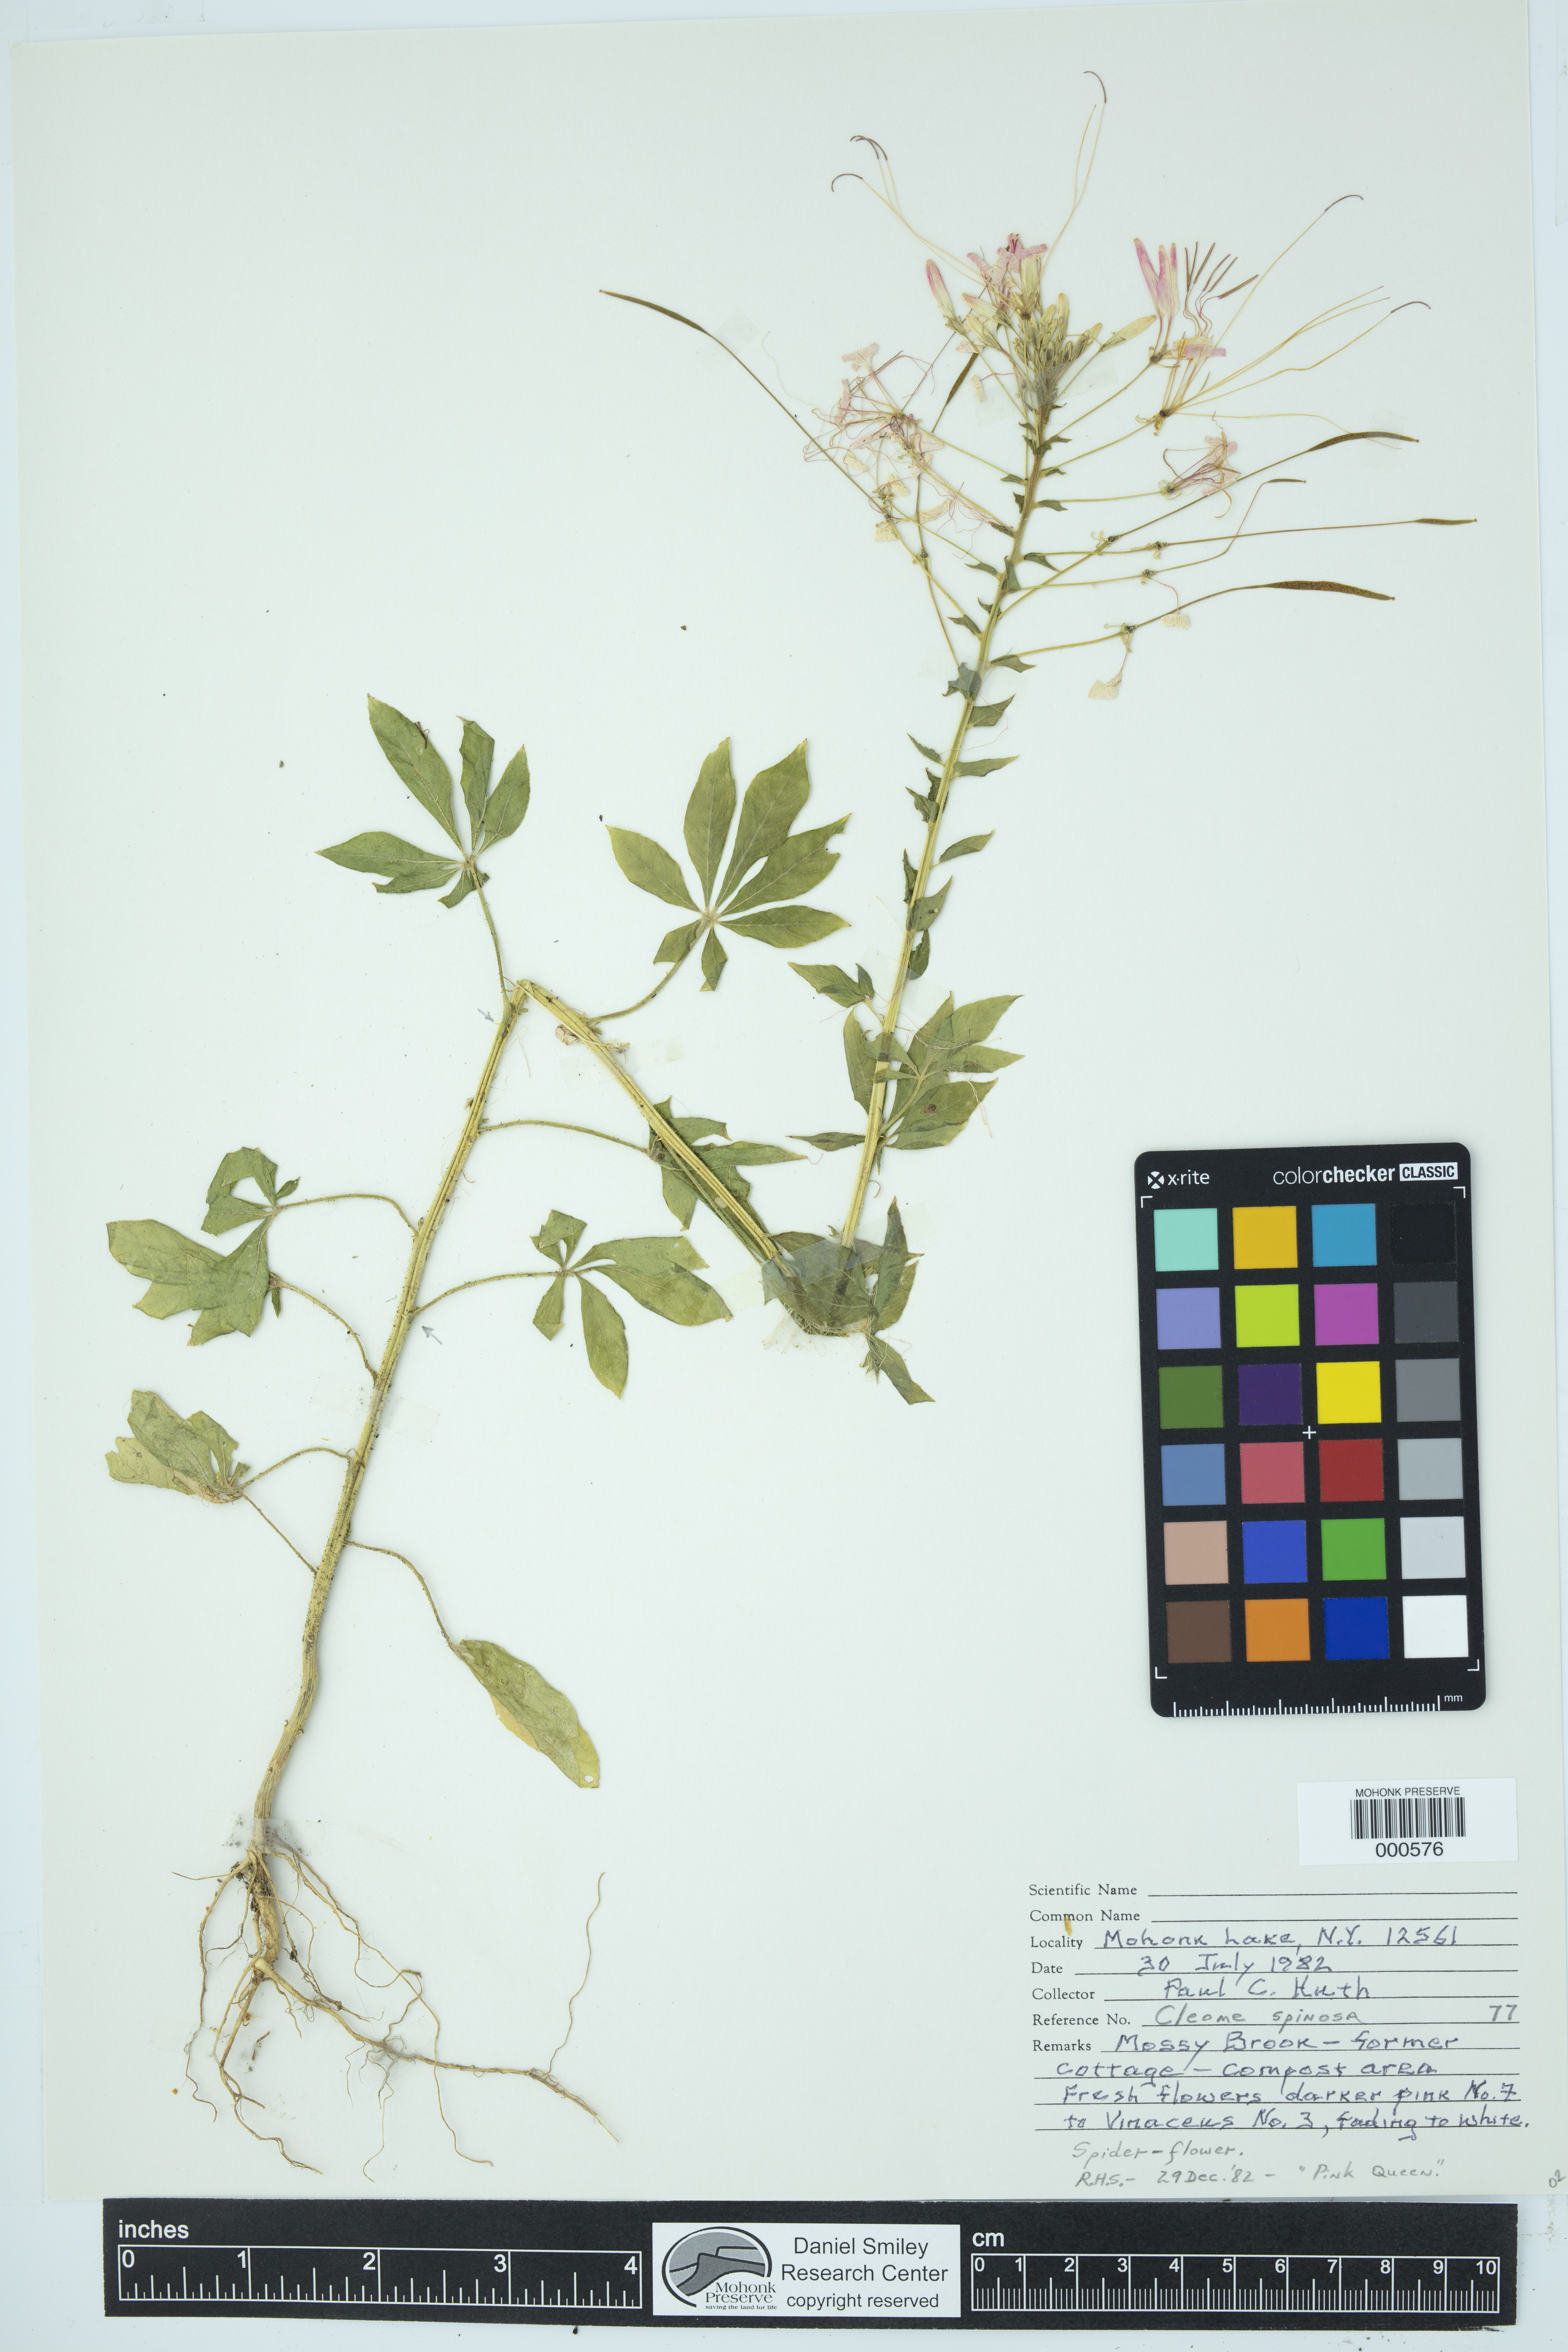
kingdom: Plantae
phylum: Tracheophyta
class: Magnoliopsida
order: Brassicales
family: Cleomaceae
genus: Tarenaya
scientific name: Tarenaya spinosa
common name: Spiny spiderflower
